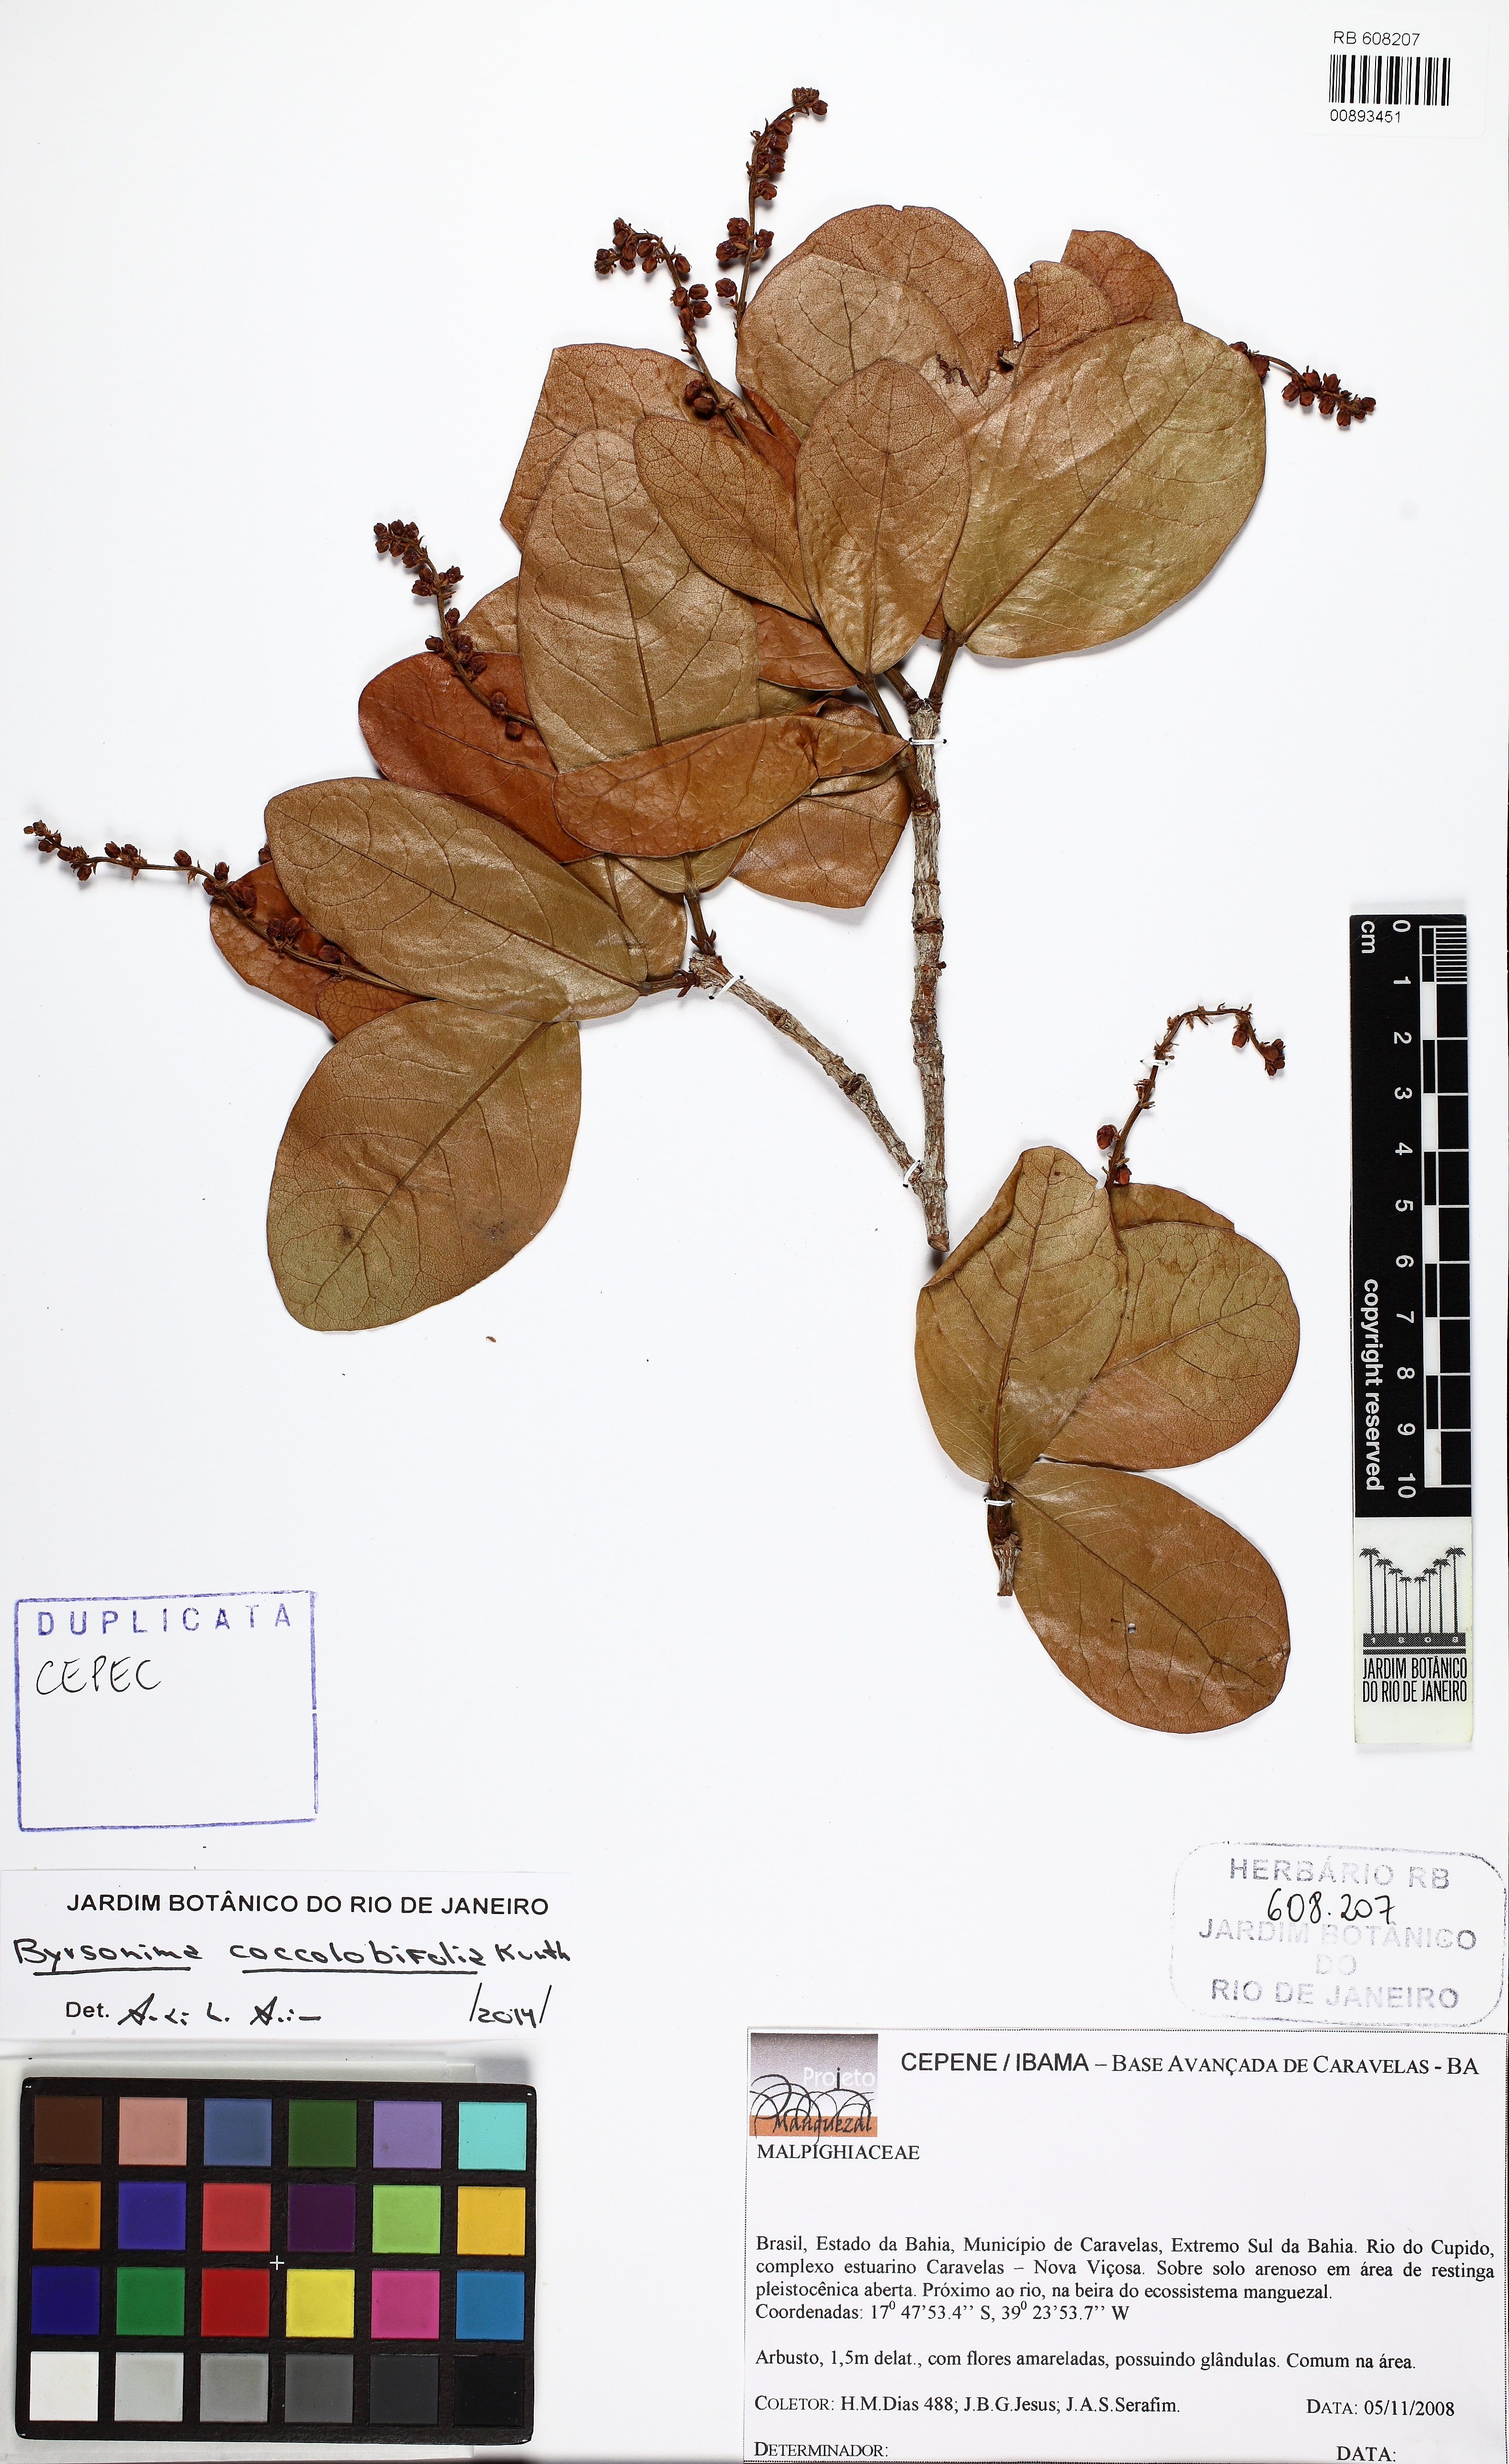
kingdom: Plantae
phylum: Tracheophyta
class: Magnoliopsida
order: Malpighiales
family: Malpighiaceae
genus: Byrsonima
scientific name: Byrsonima coccolobifolia
